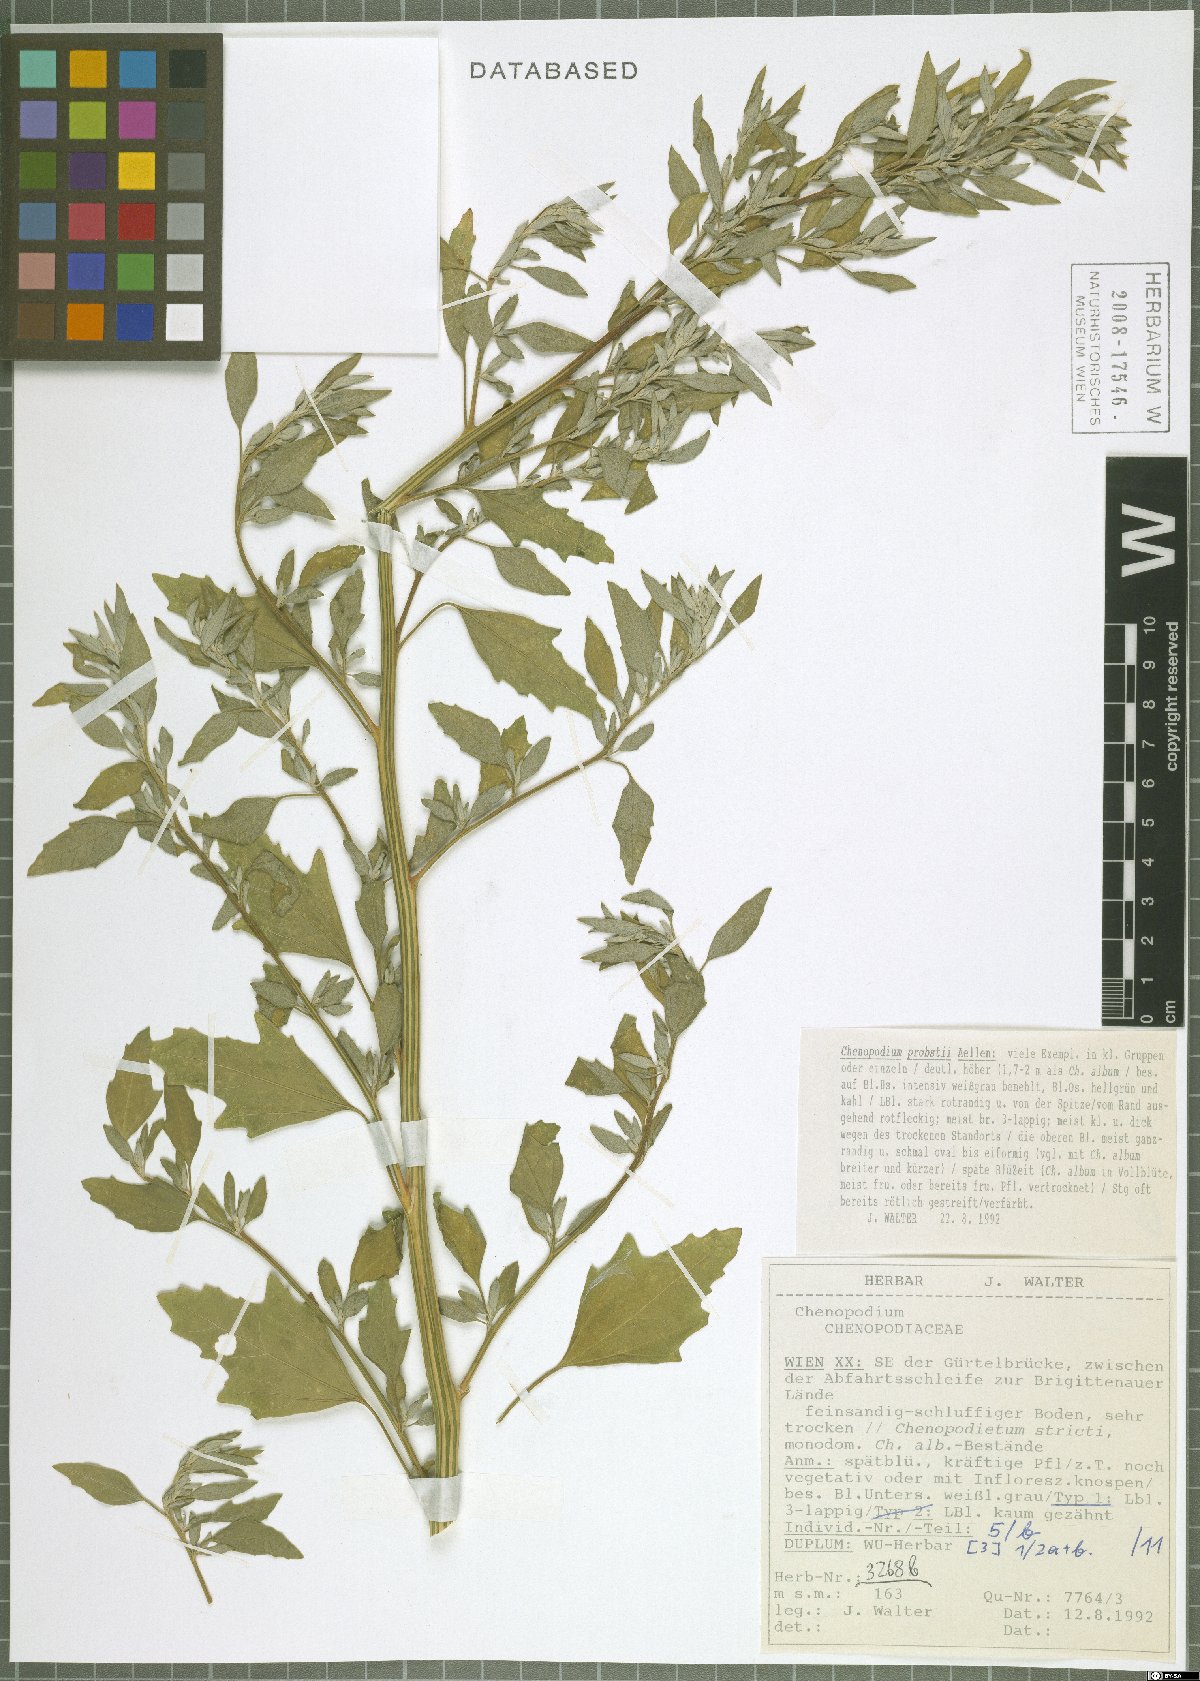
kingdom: Plantae
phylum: Tracheophyta
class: Magnoliopsida
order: Caryophyllales
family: Amaranthaceae
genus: Chenopodium
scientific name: Chenopodium probstii
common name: Probst's goosefoot
